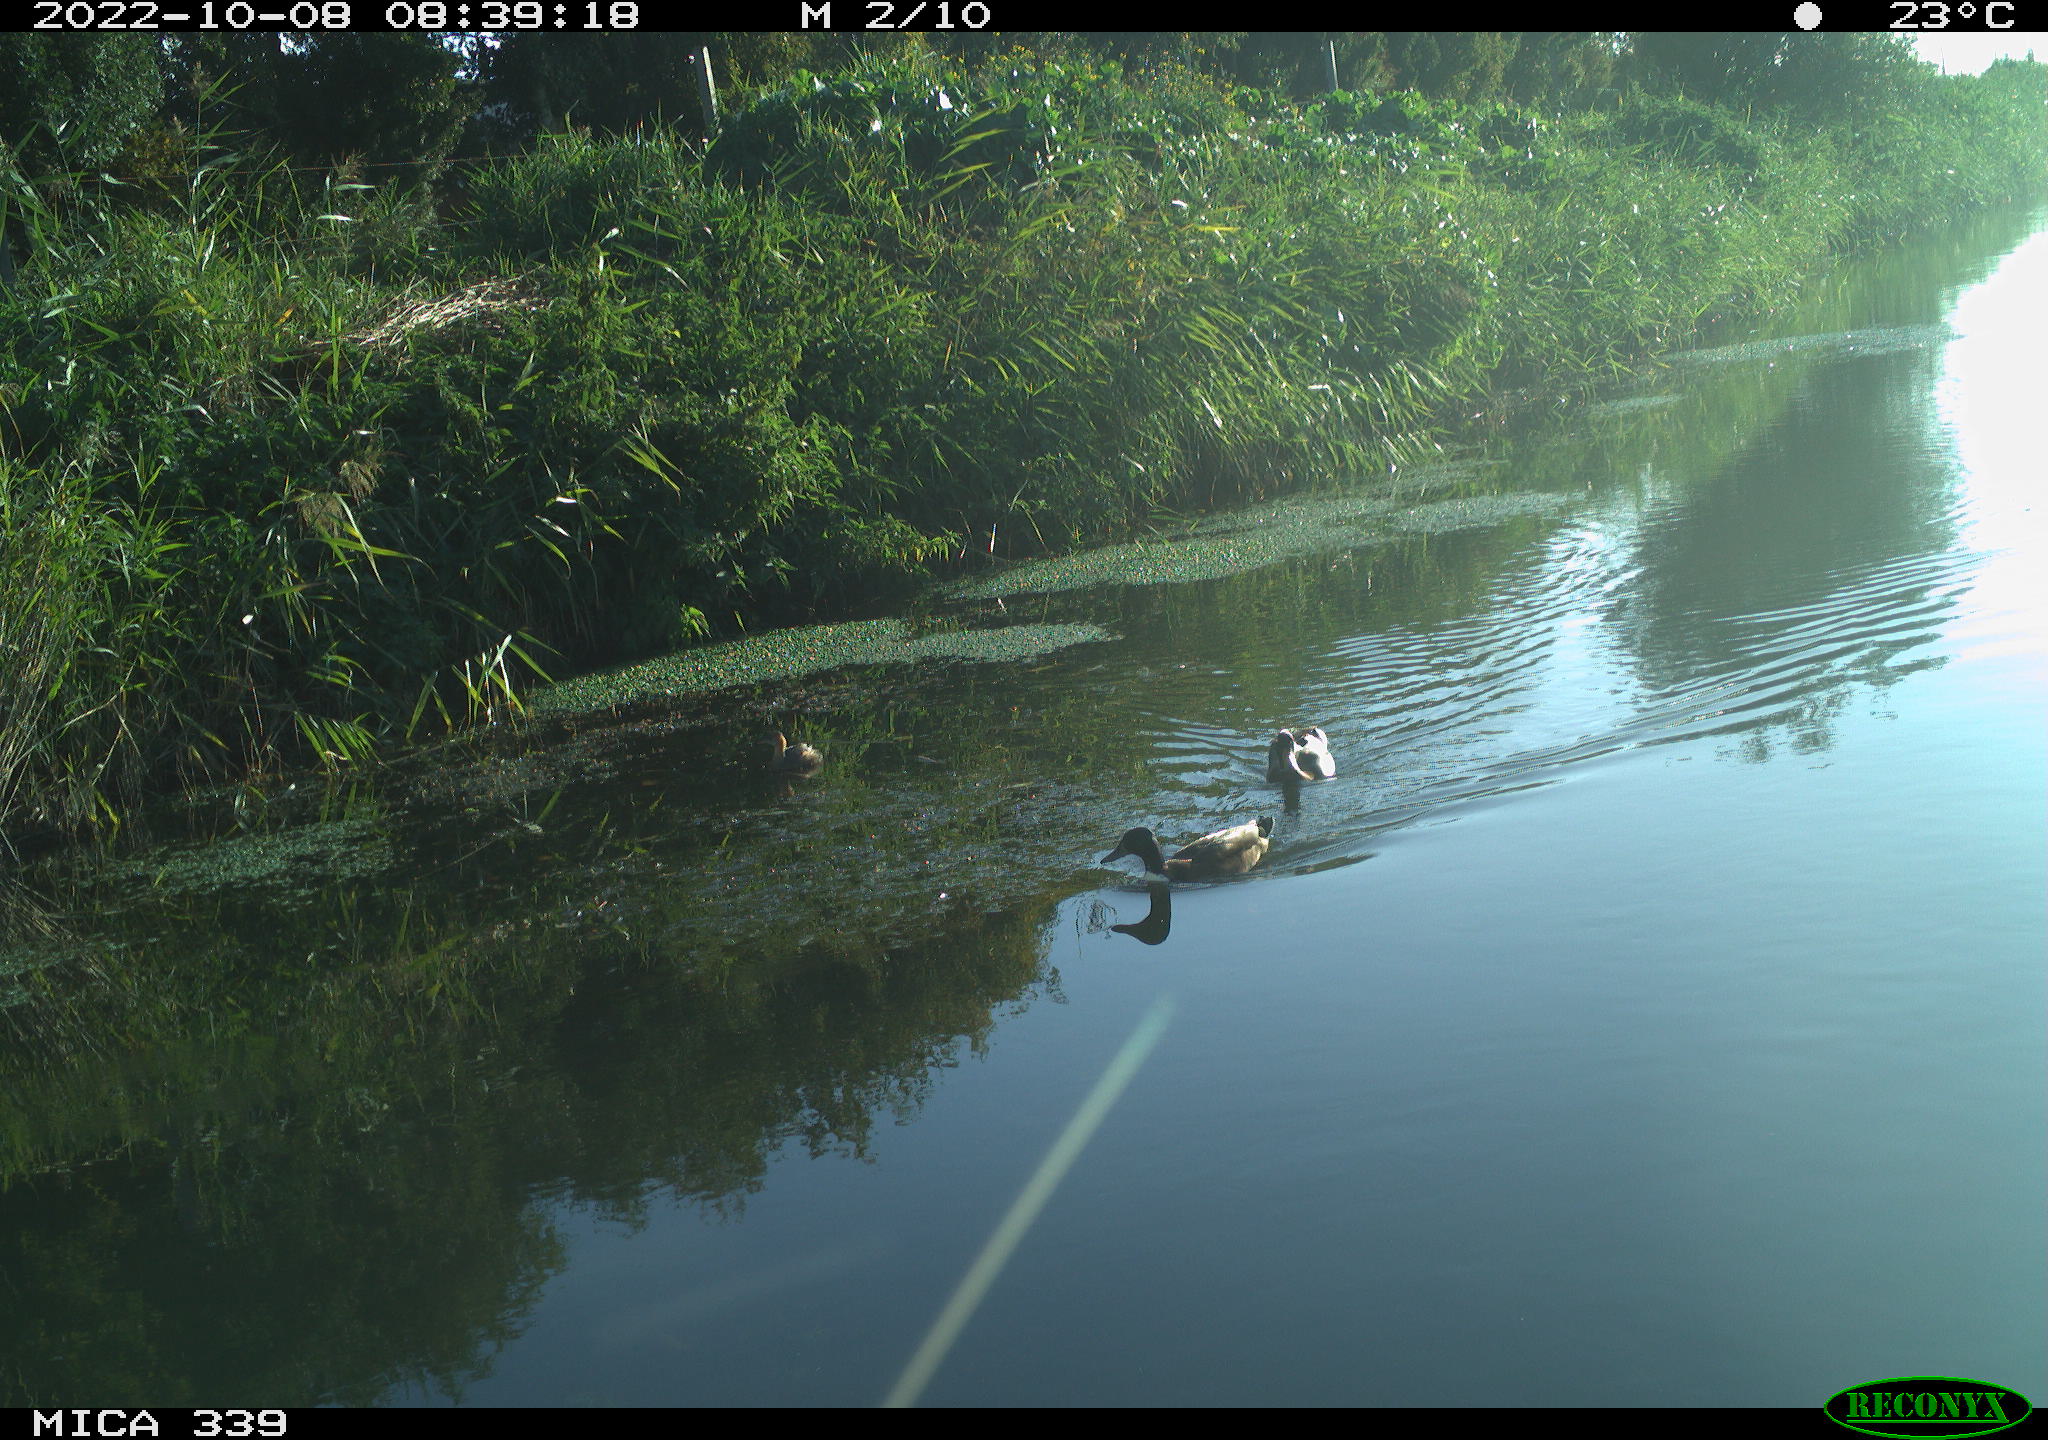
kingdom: Animalia
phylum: Chordata
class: Aves
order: Anseriformes
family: Anatidae
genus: Anas
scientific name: Anas platyrhynchos
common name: Mallard
